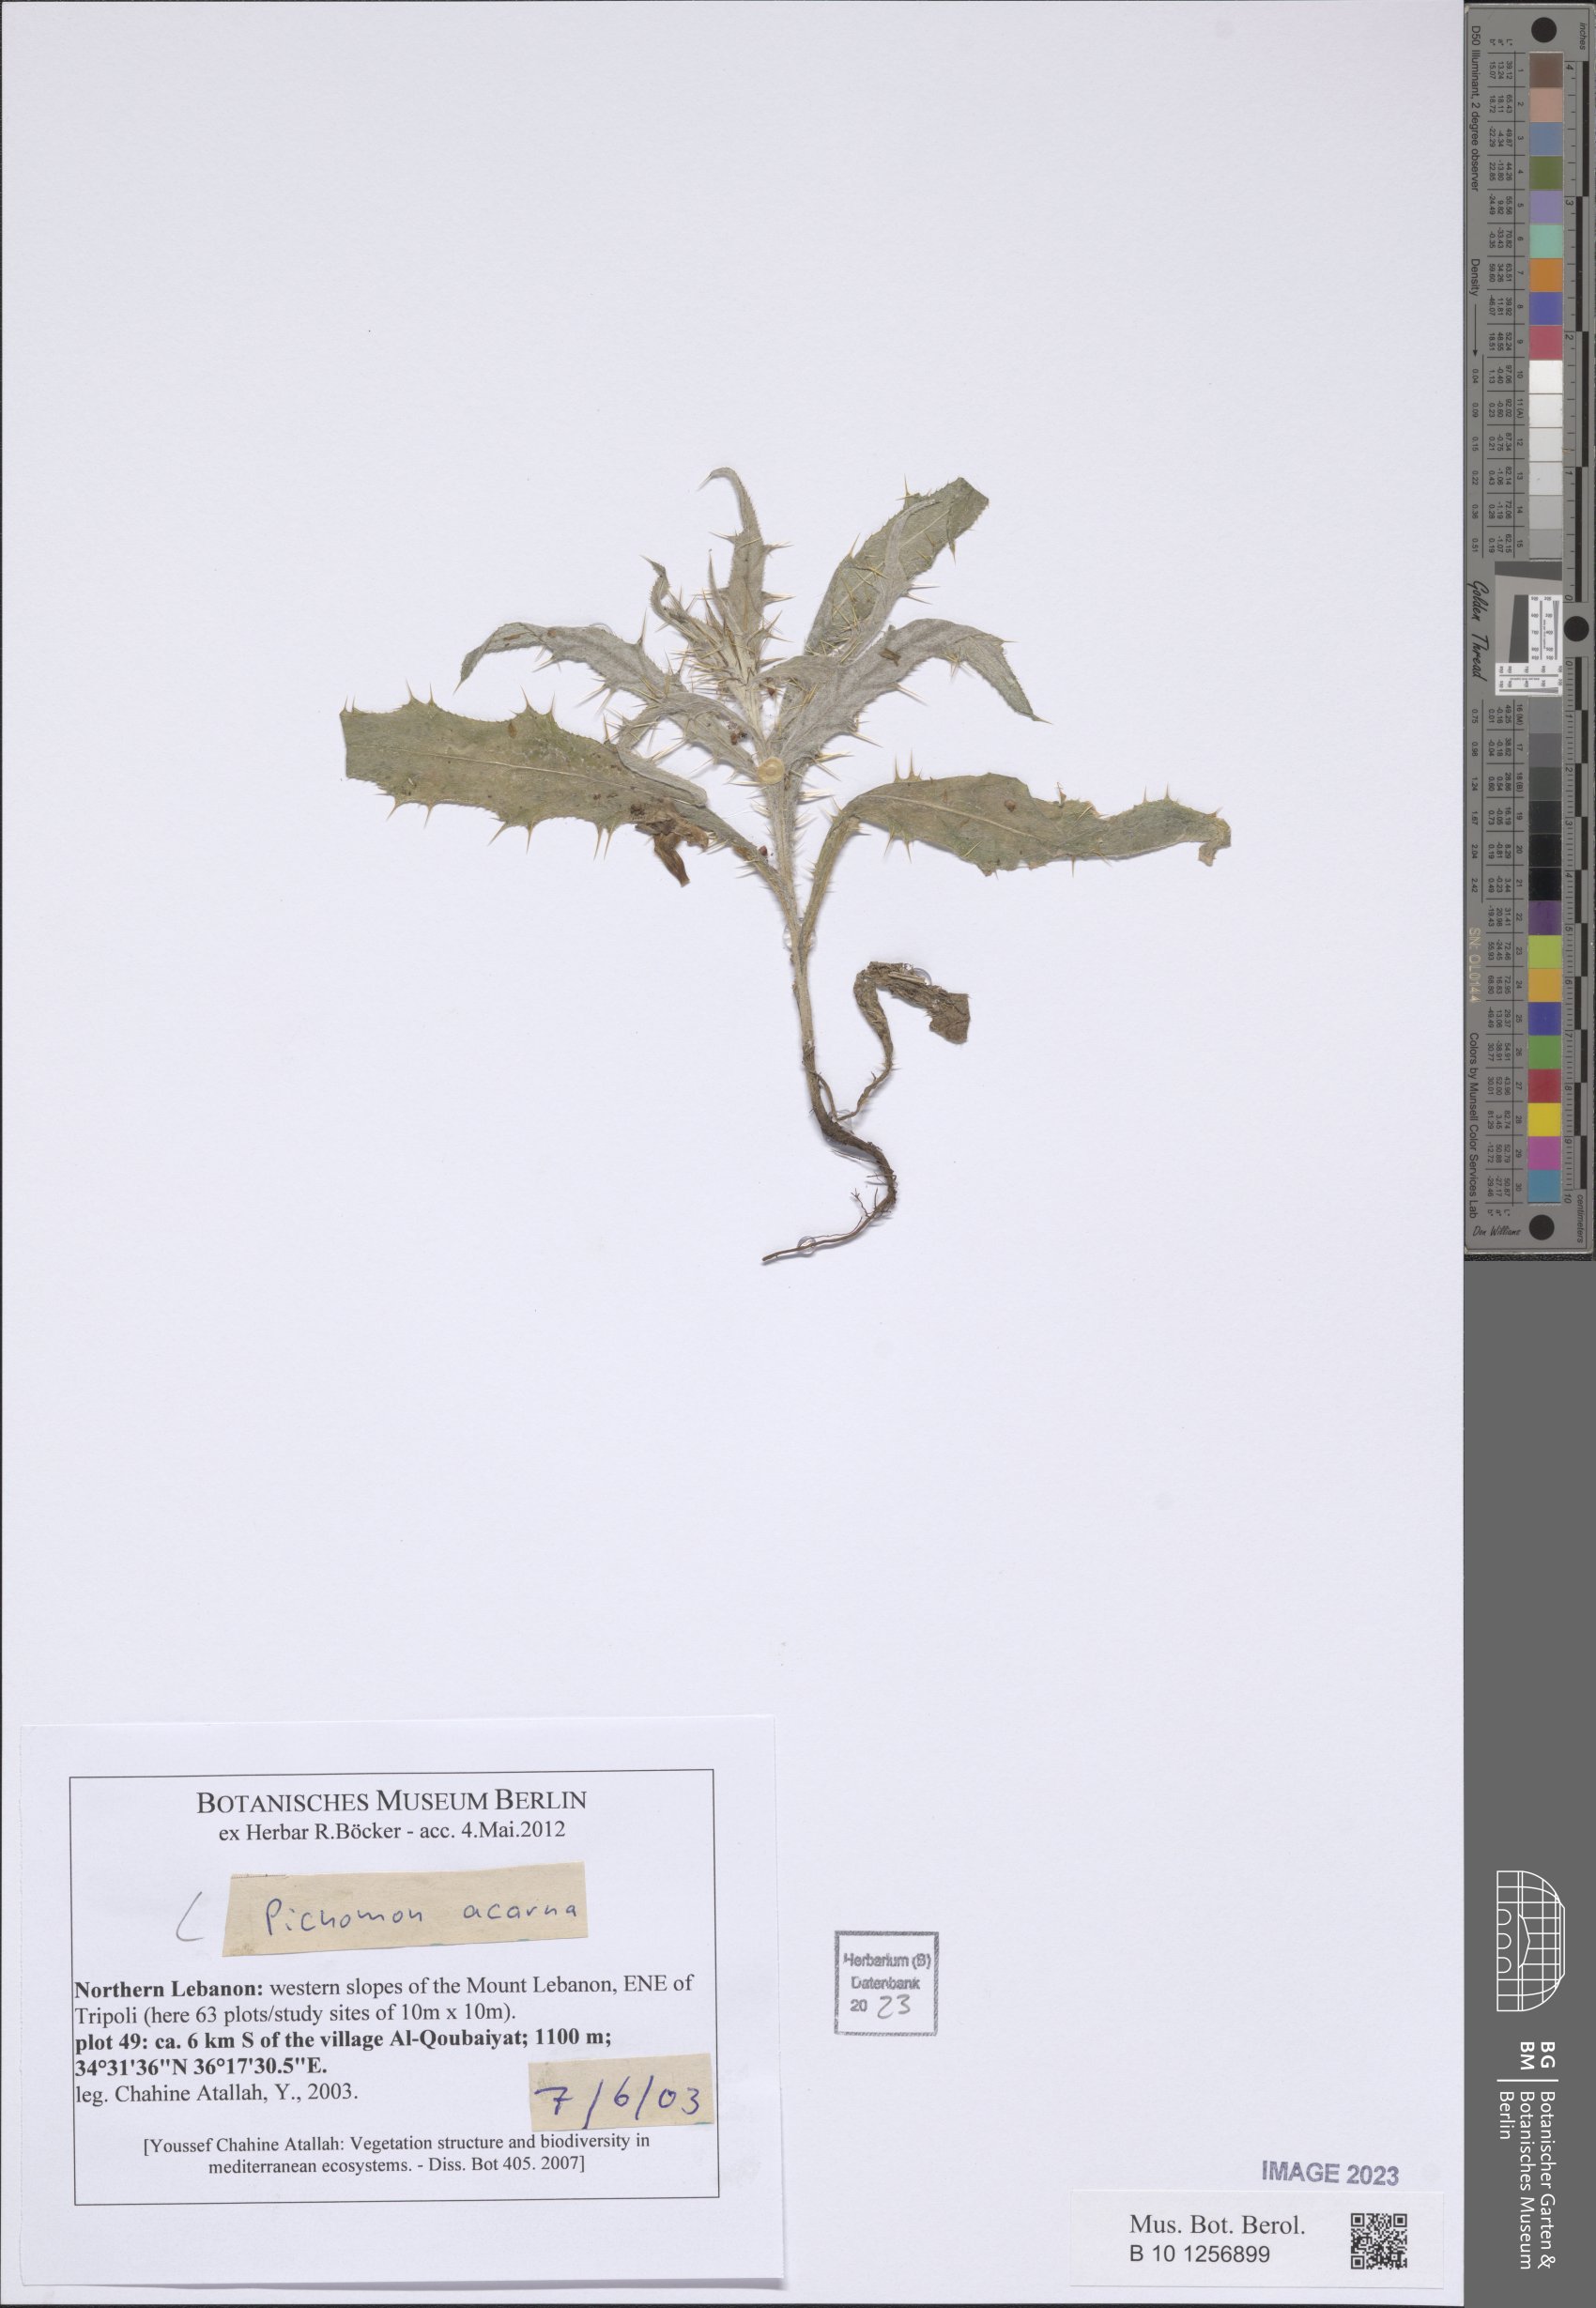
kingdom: Plantae
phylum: Tracheophyta
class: Magnoliopsida
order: Asterales
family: Asteraceae
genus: Picnomon
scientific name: Picnomon acarna
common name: Soldier thistle
